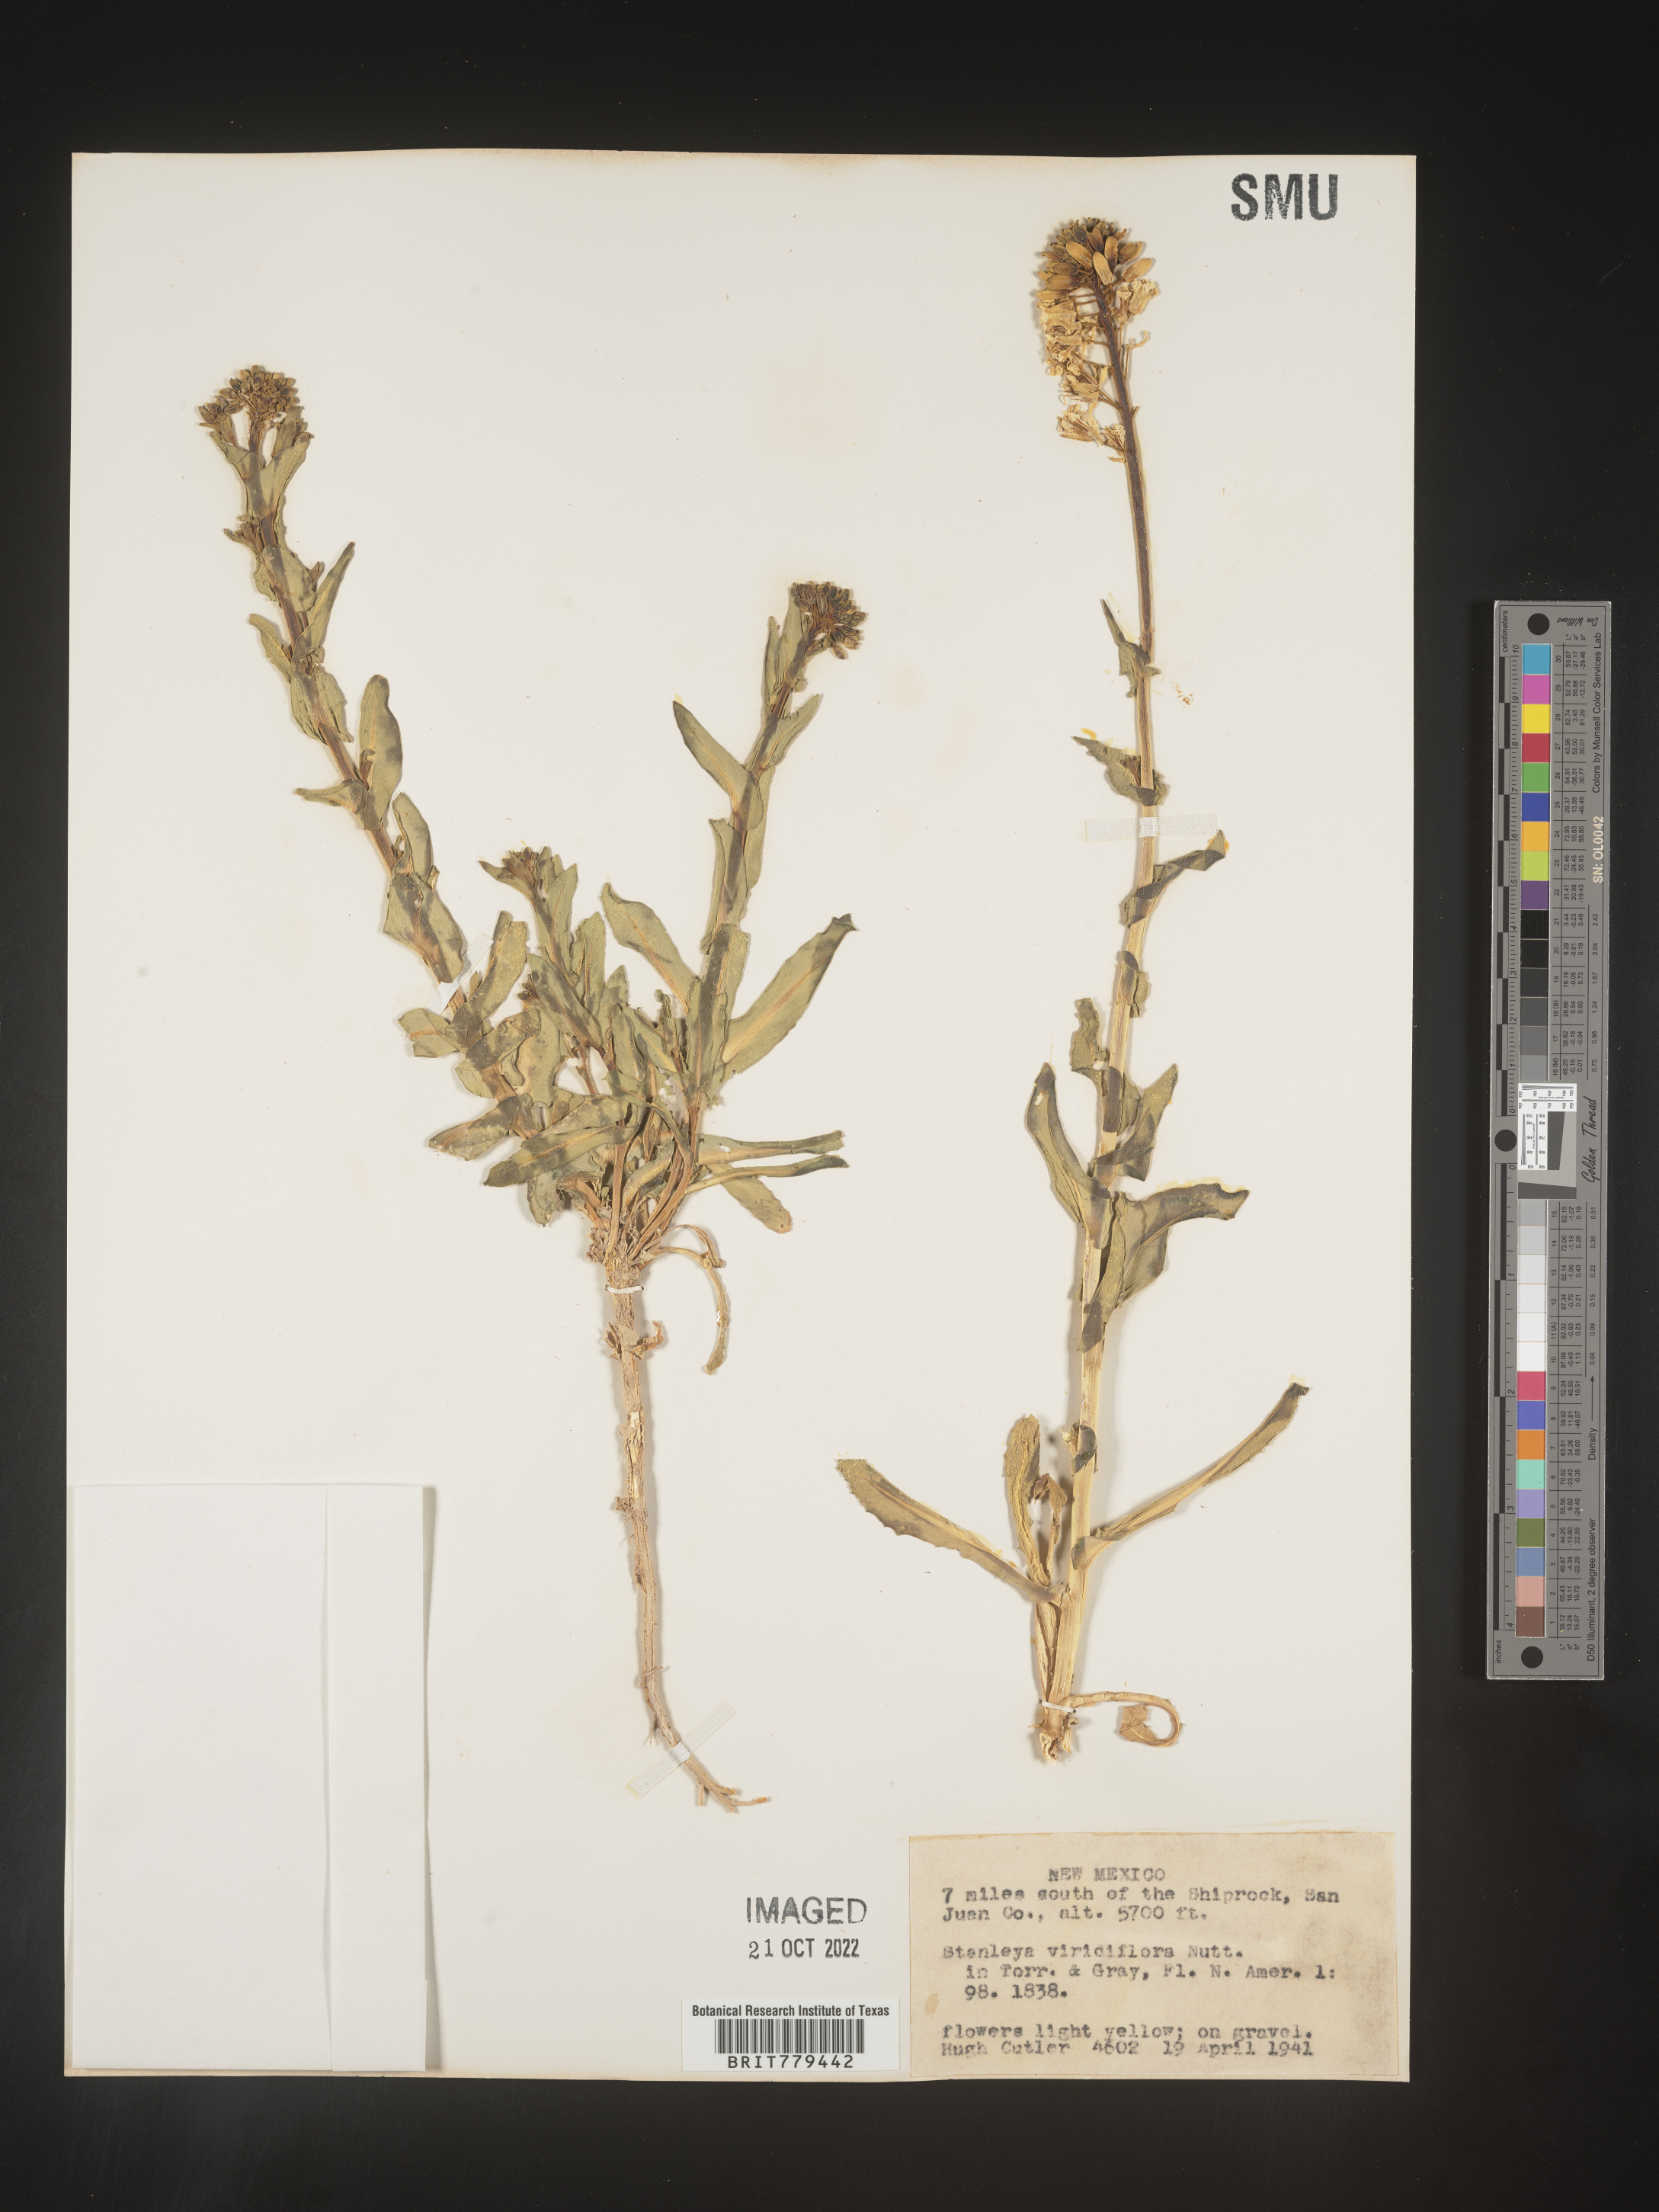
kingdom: Plantae
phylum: Tracheophyta
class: Magnoliopsida
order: Brassicales
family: Brassicaceae
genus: Stanleya
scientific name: Stanleya
